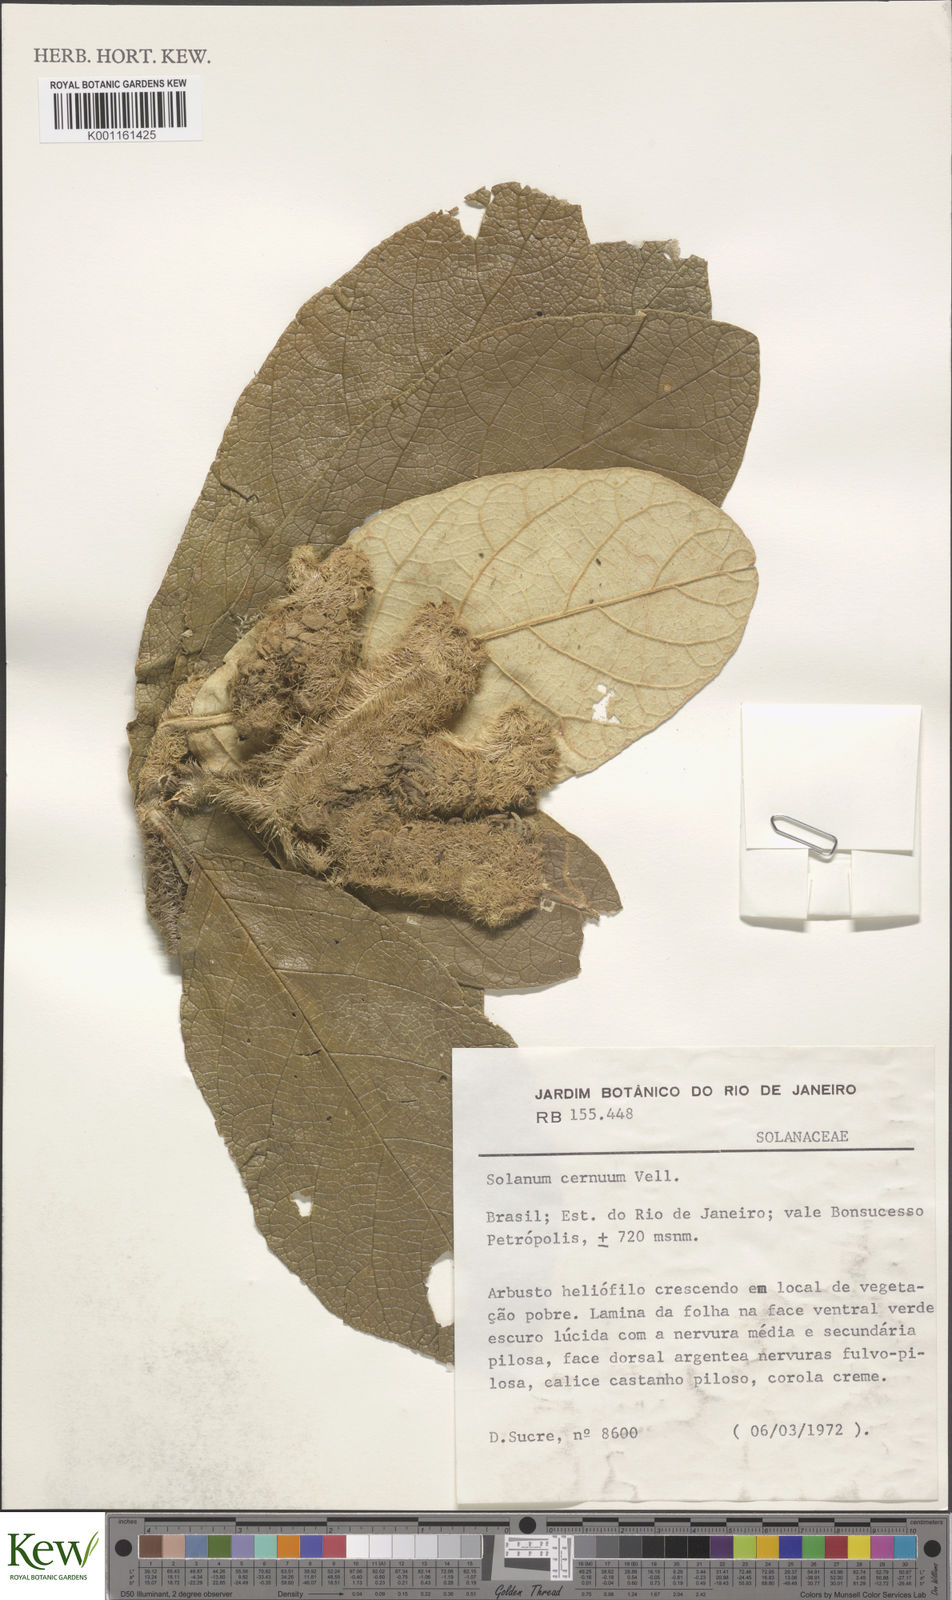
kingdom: Plantae
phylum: Tracheophyta
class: Magnoliopsida
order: Solanales
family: Solanaceae
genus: Solanum
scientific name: Solanum cernuum
